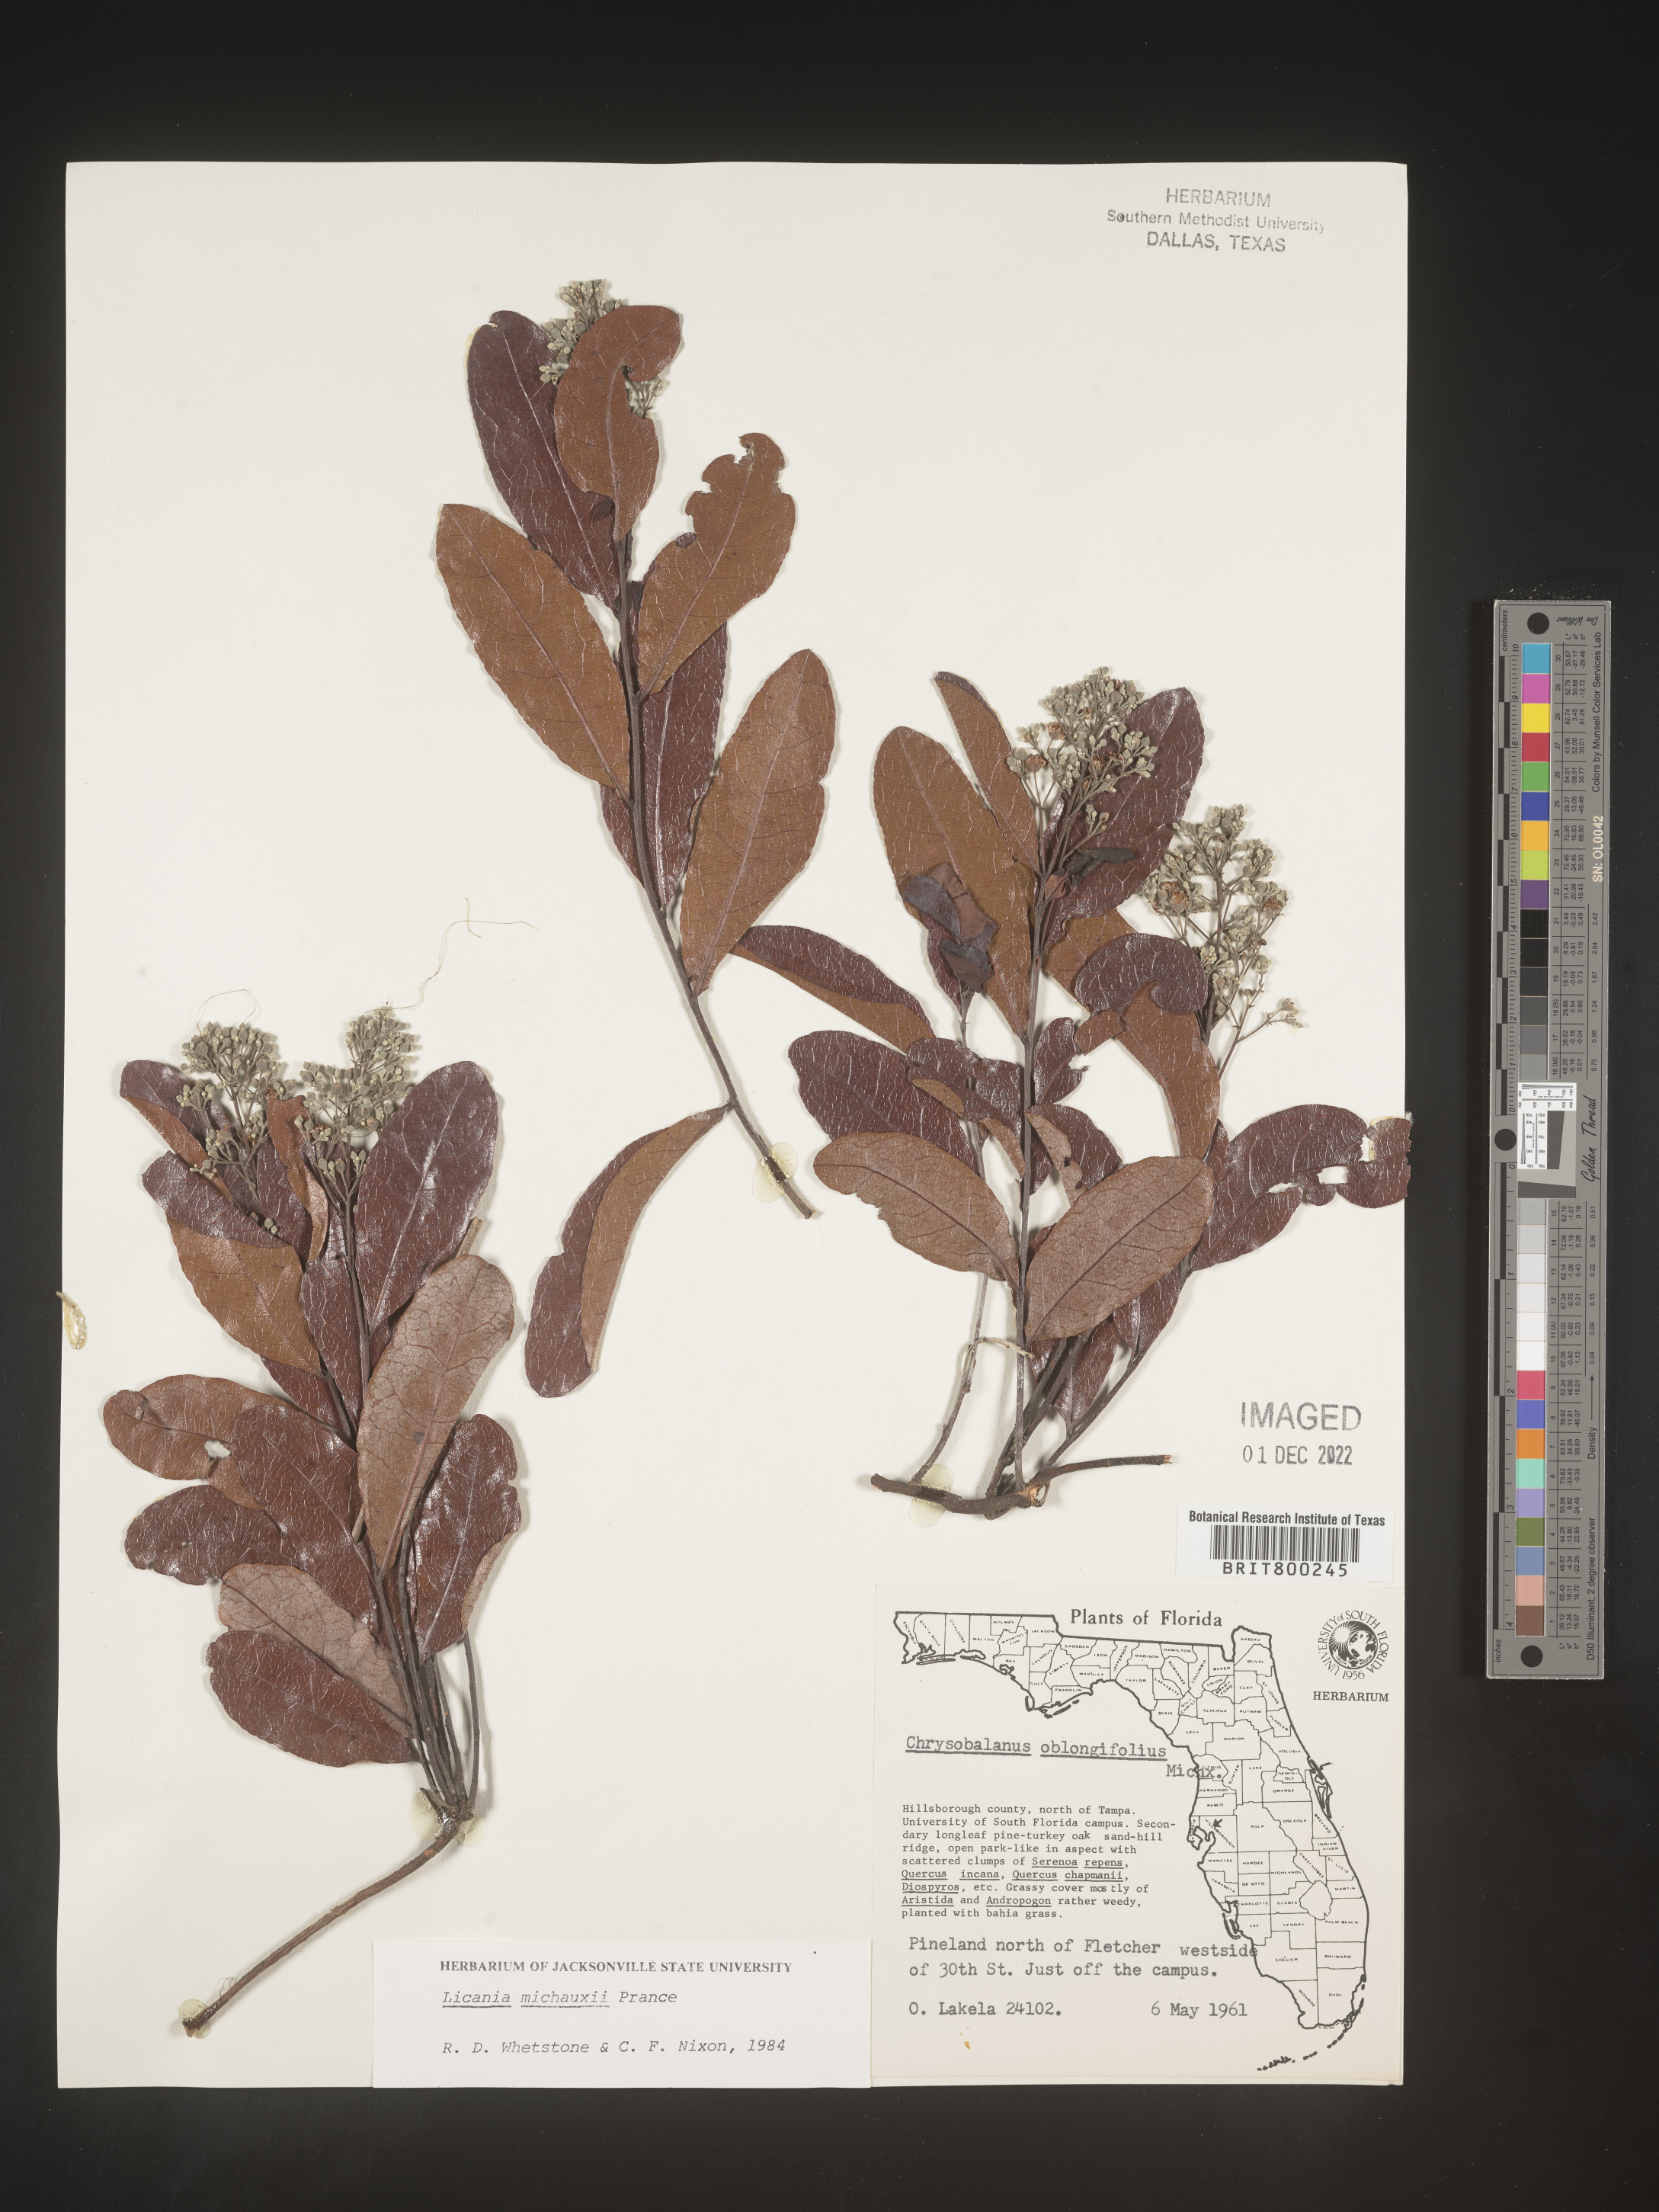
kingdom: Plantae
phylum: Tracheophyta
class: Magnoliopsida
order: Malpighiales
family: Chrysobalanaceae
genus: Geobalanus
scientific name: Geobalanus oblongifolius
